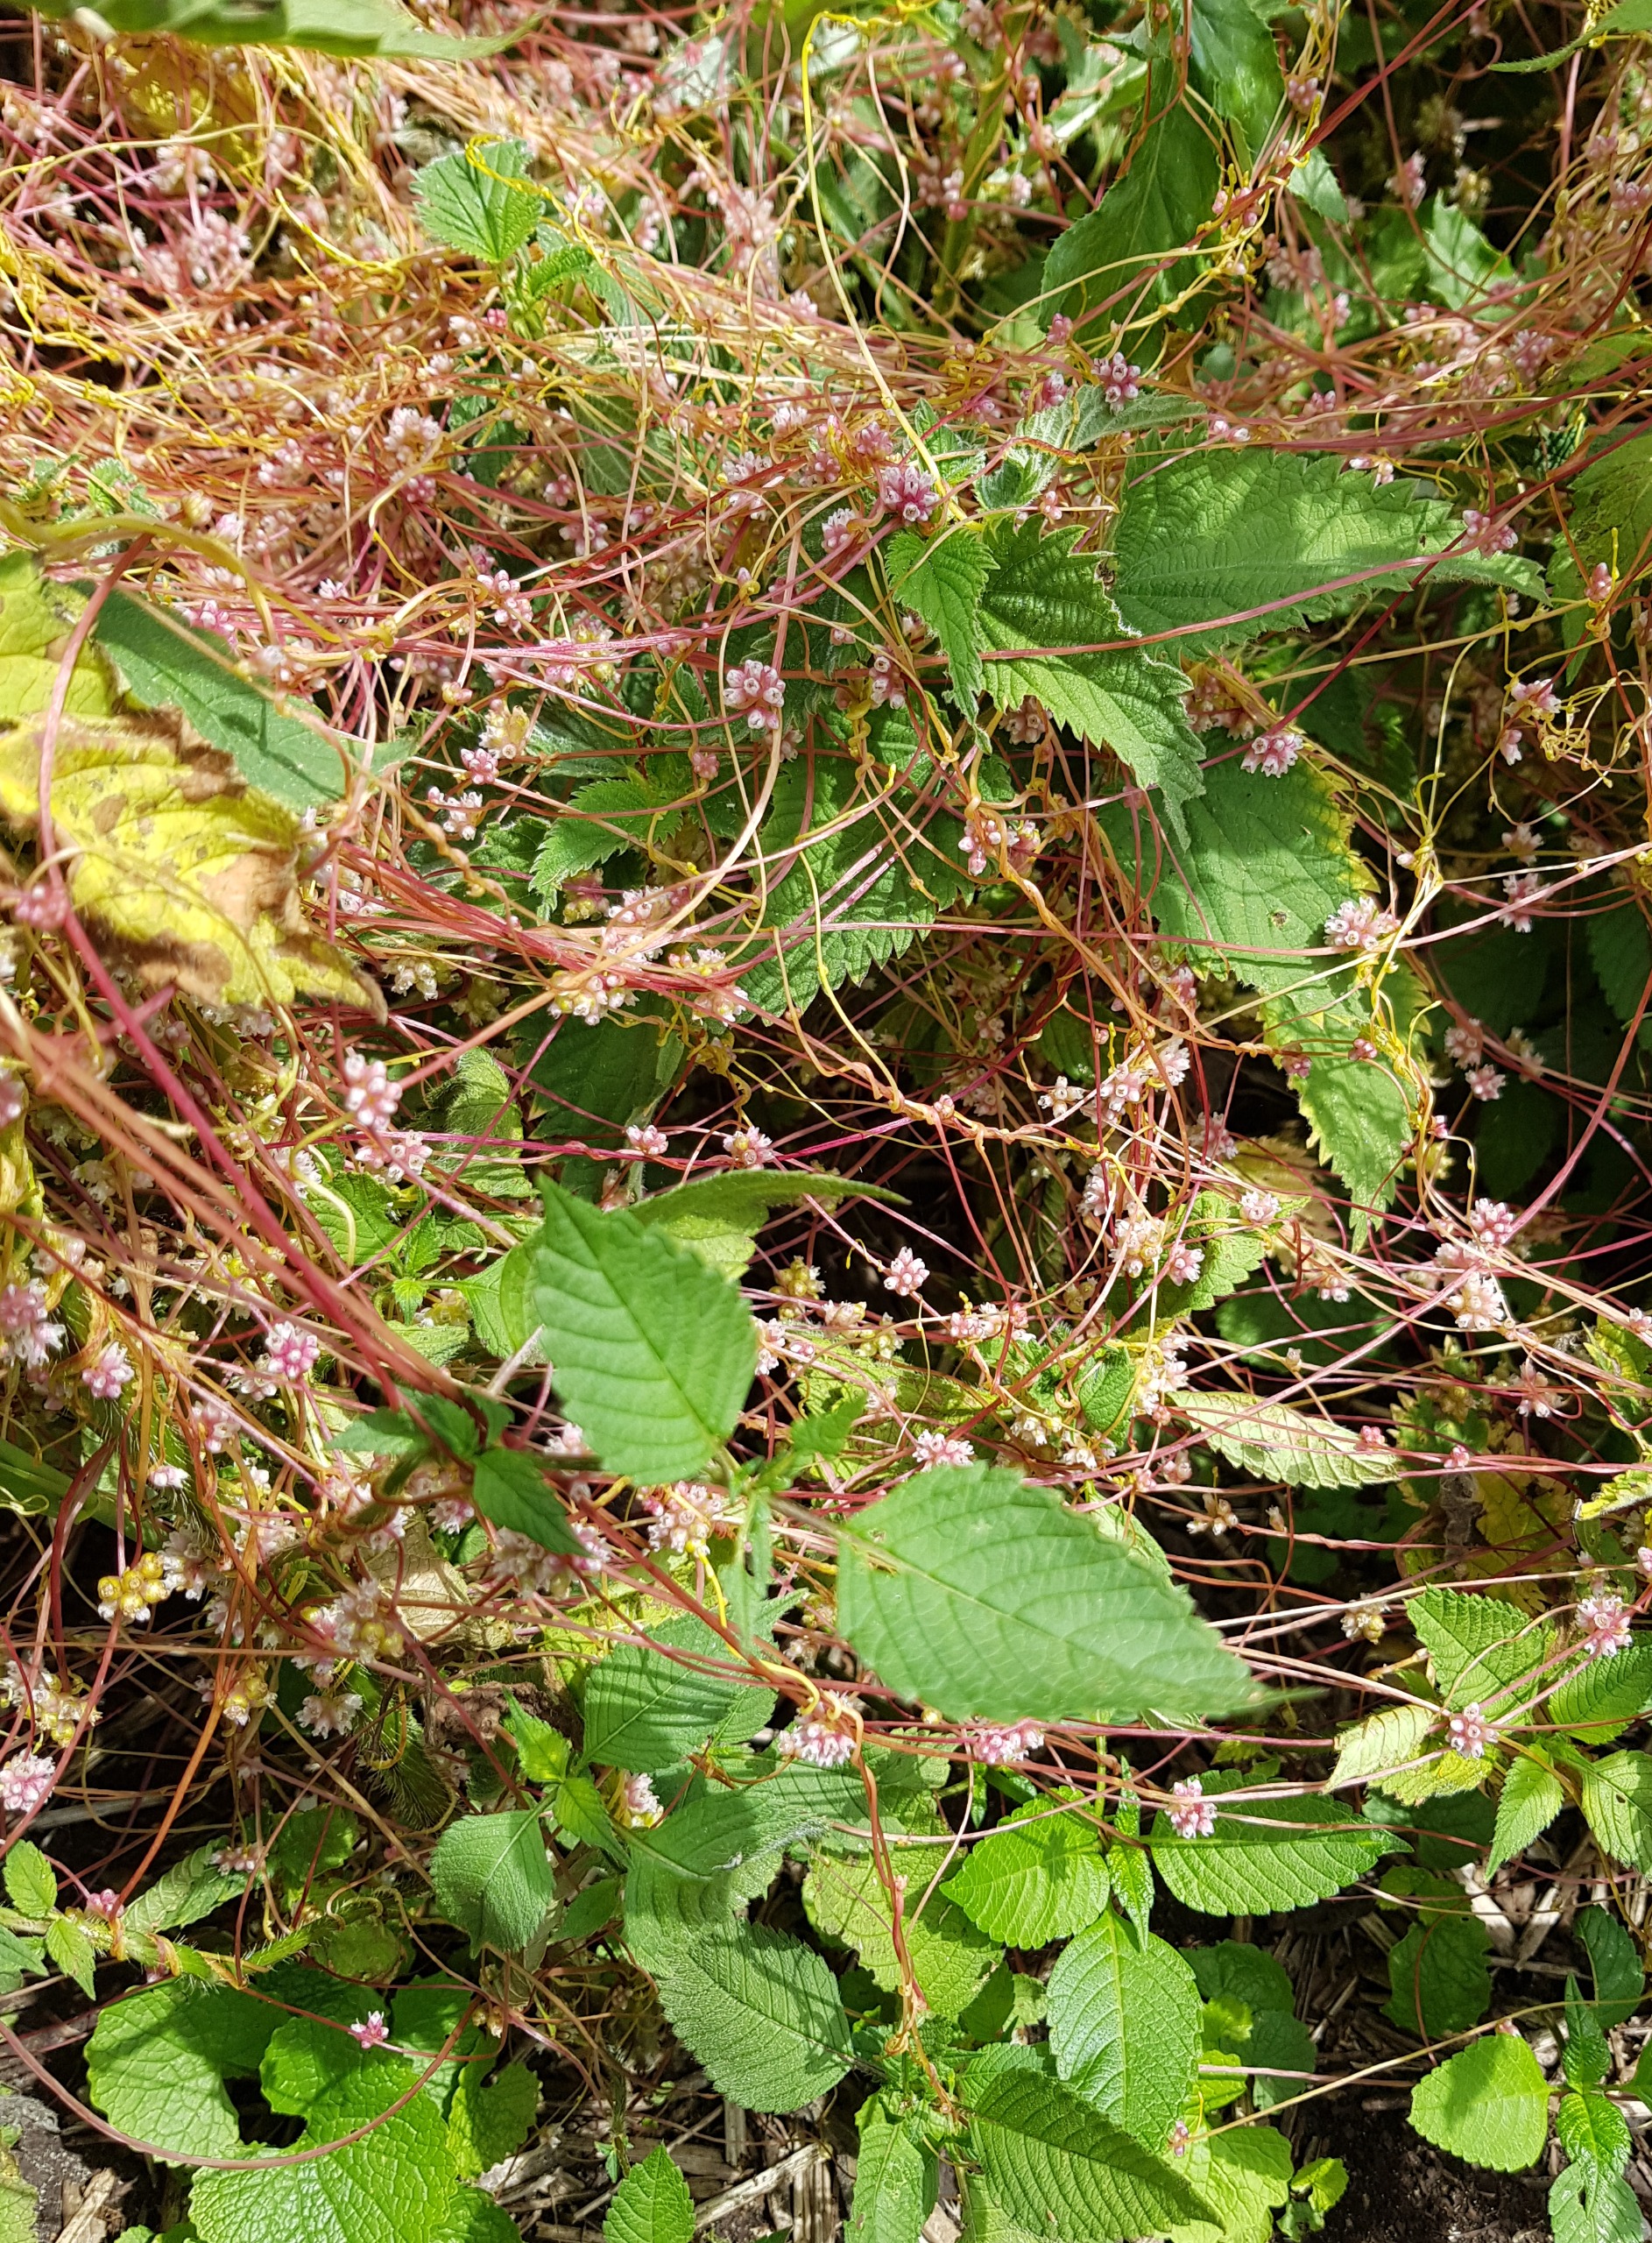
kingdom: Plantae
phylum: Tracheophyta
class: Magnoliopsida
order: Solanales
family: Convolvulaceae
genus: Cuscuta
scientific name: Cuscuta europaea
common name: Nælde-silke
